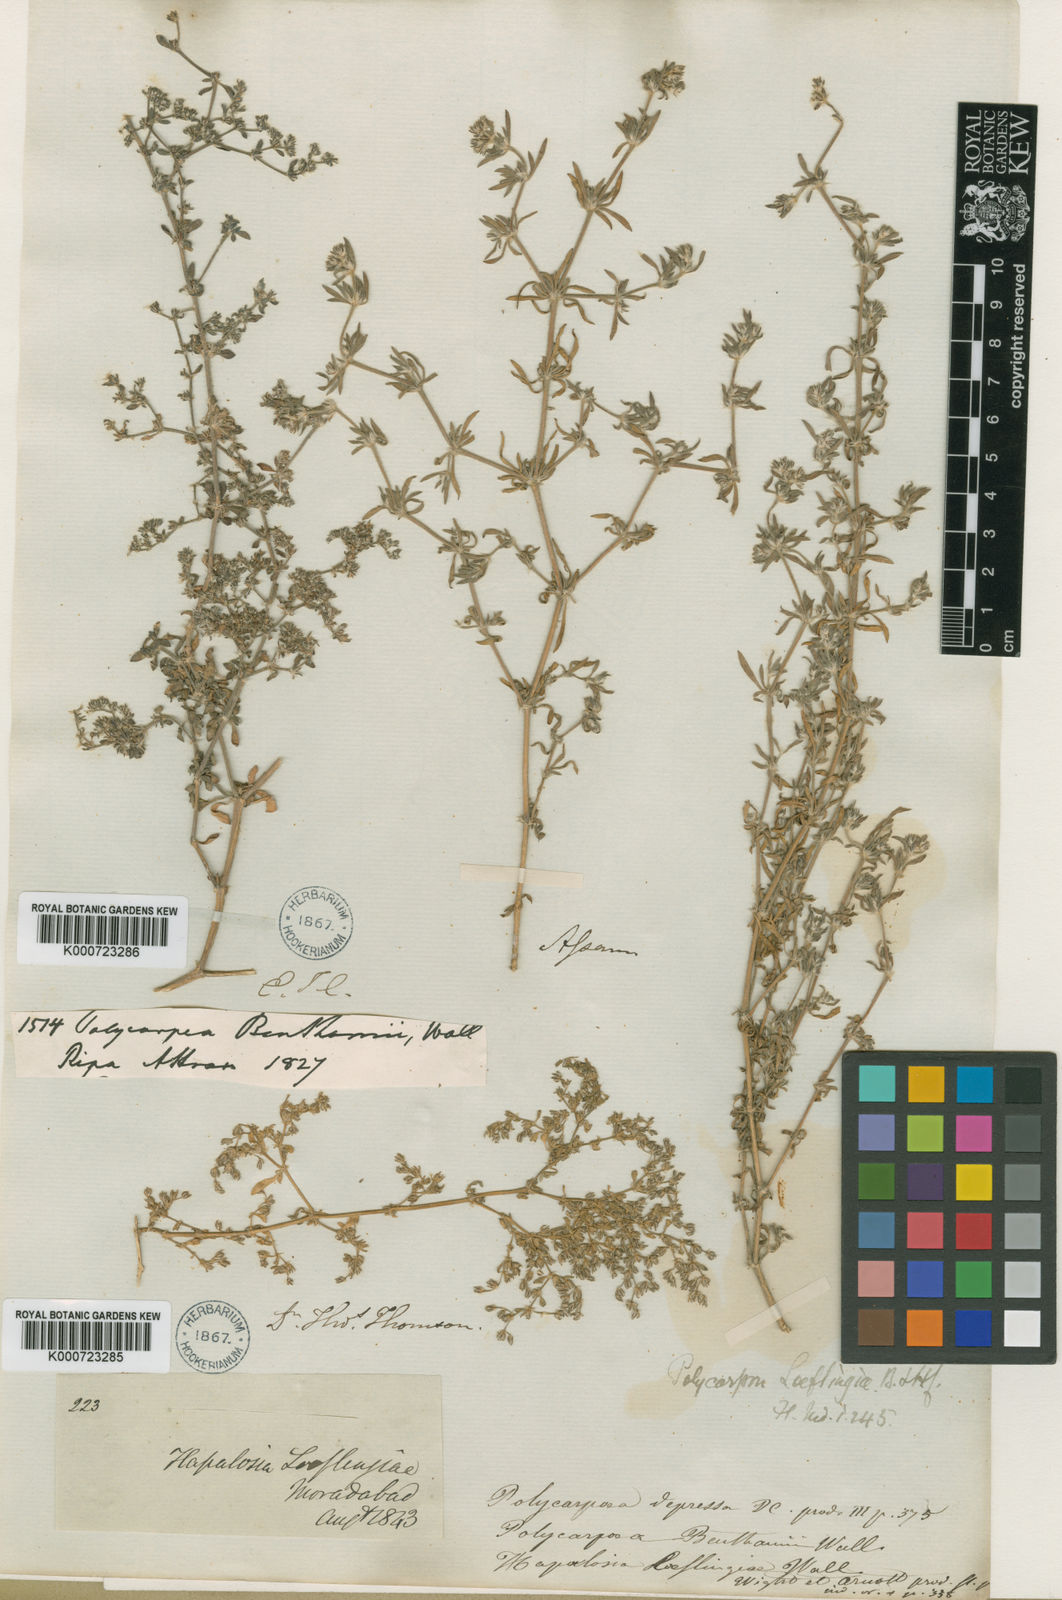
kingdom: Plantae
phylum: Tracheophyta
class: Magnoliopsida
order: Caryophyllales
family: Caryophyllaceae
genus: Polycarpon
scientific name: Polycarpon prostratum
